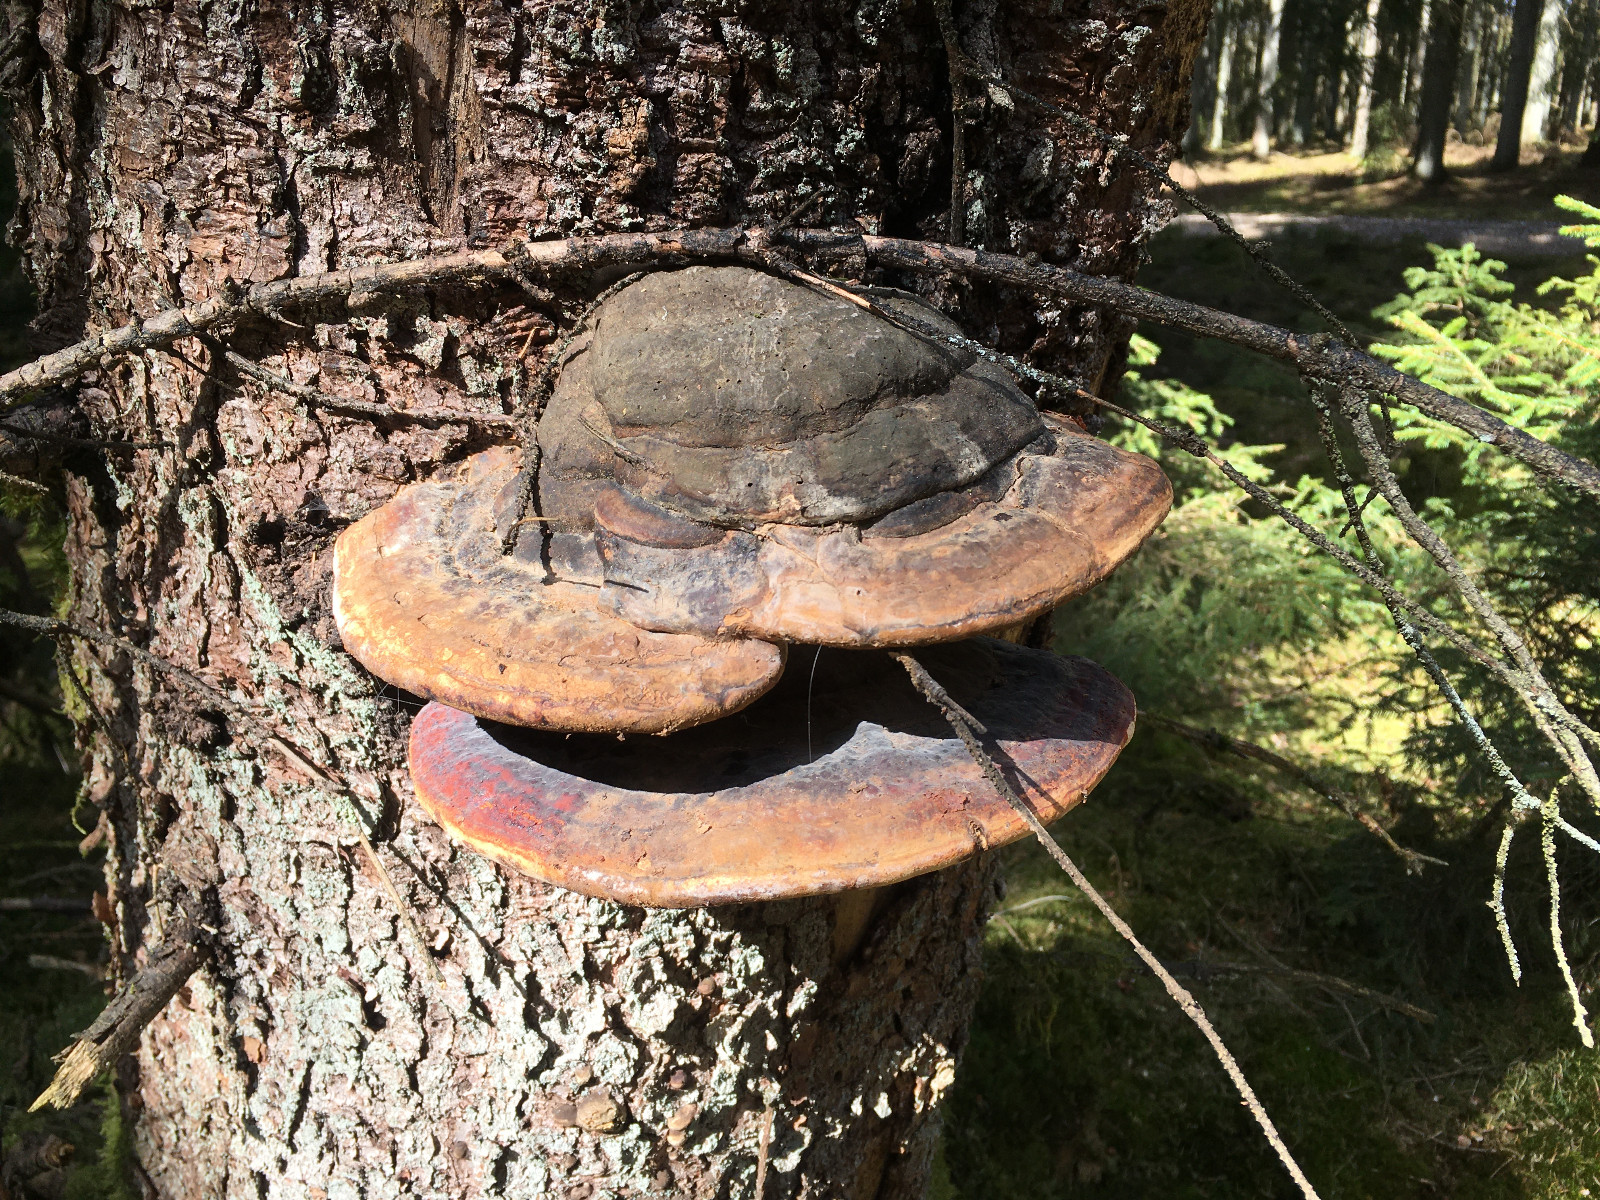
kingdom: Fungi
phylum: Basidiomycota
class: Agaricomycetes
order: Polyporales
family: Fomitopsidaceae
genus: Fomitopsis
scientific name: Fomitopsis pinicola
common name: randbæltet hovporesvamp
